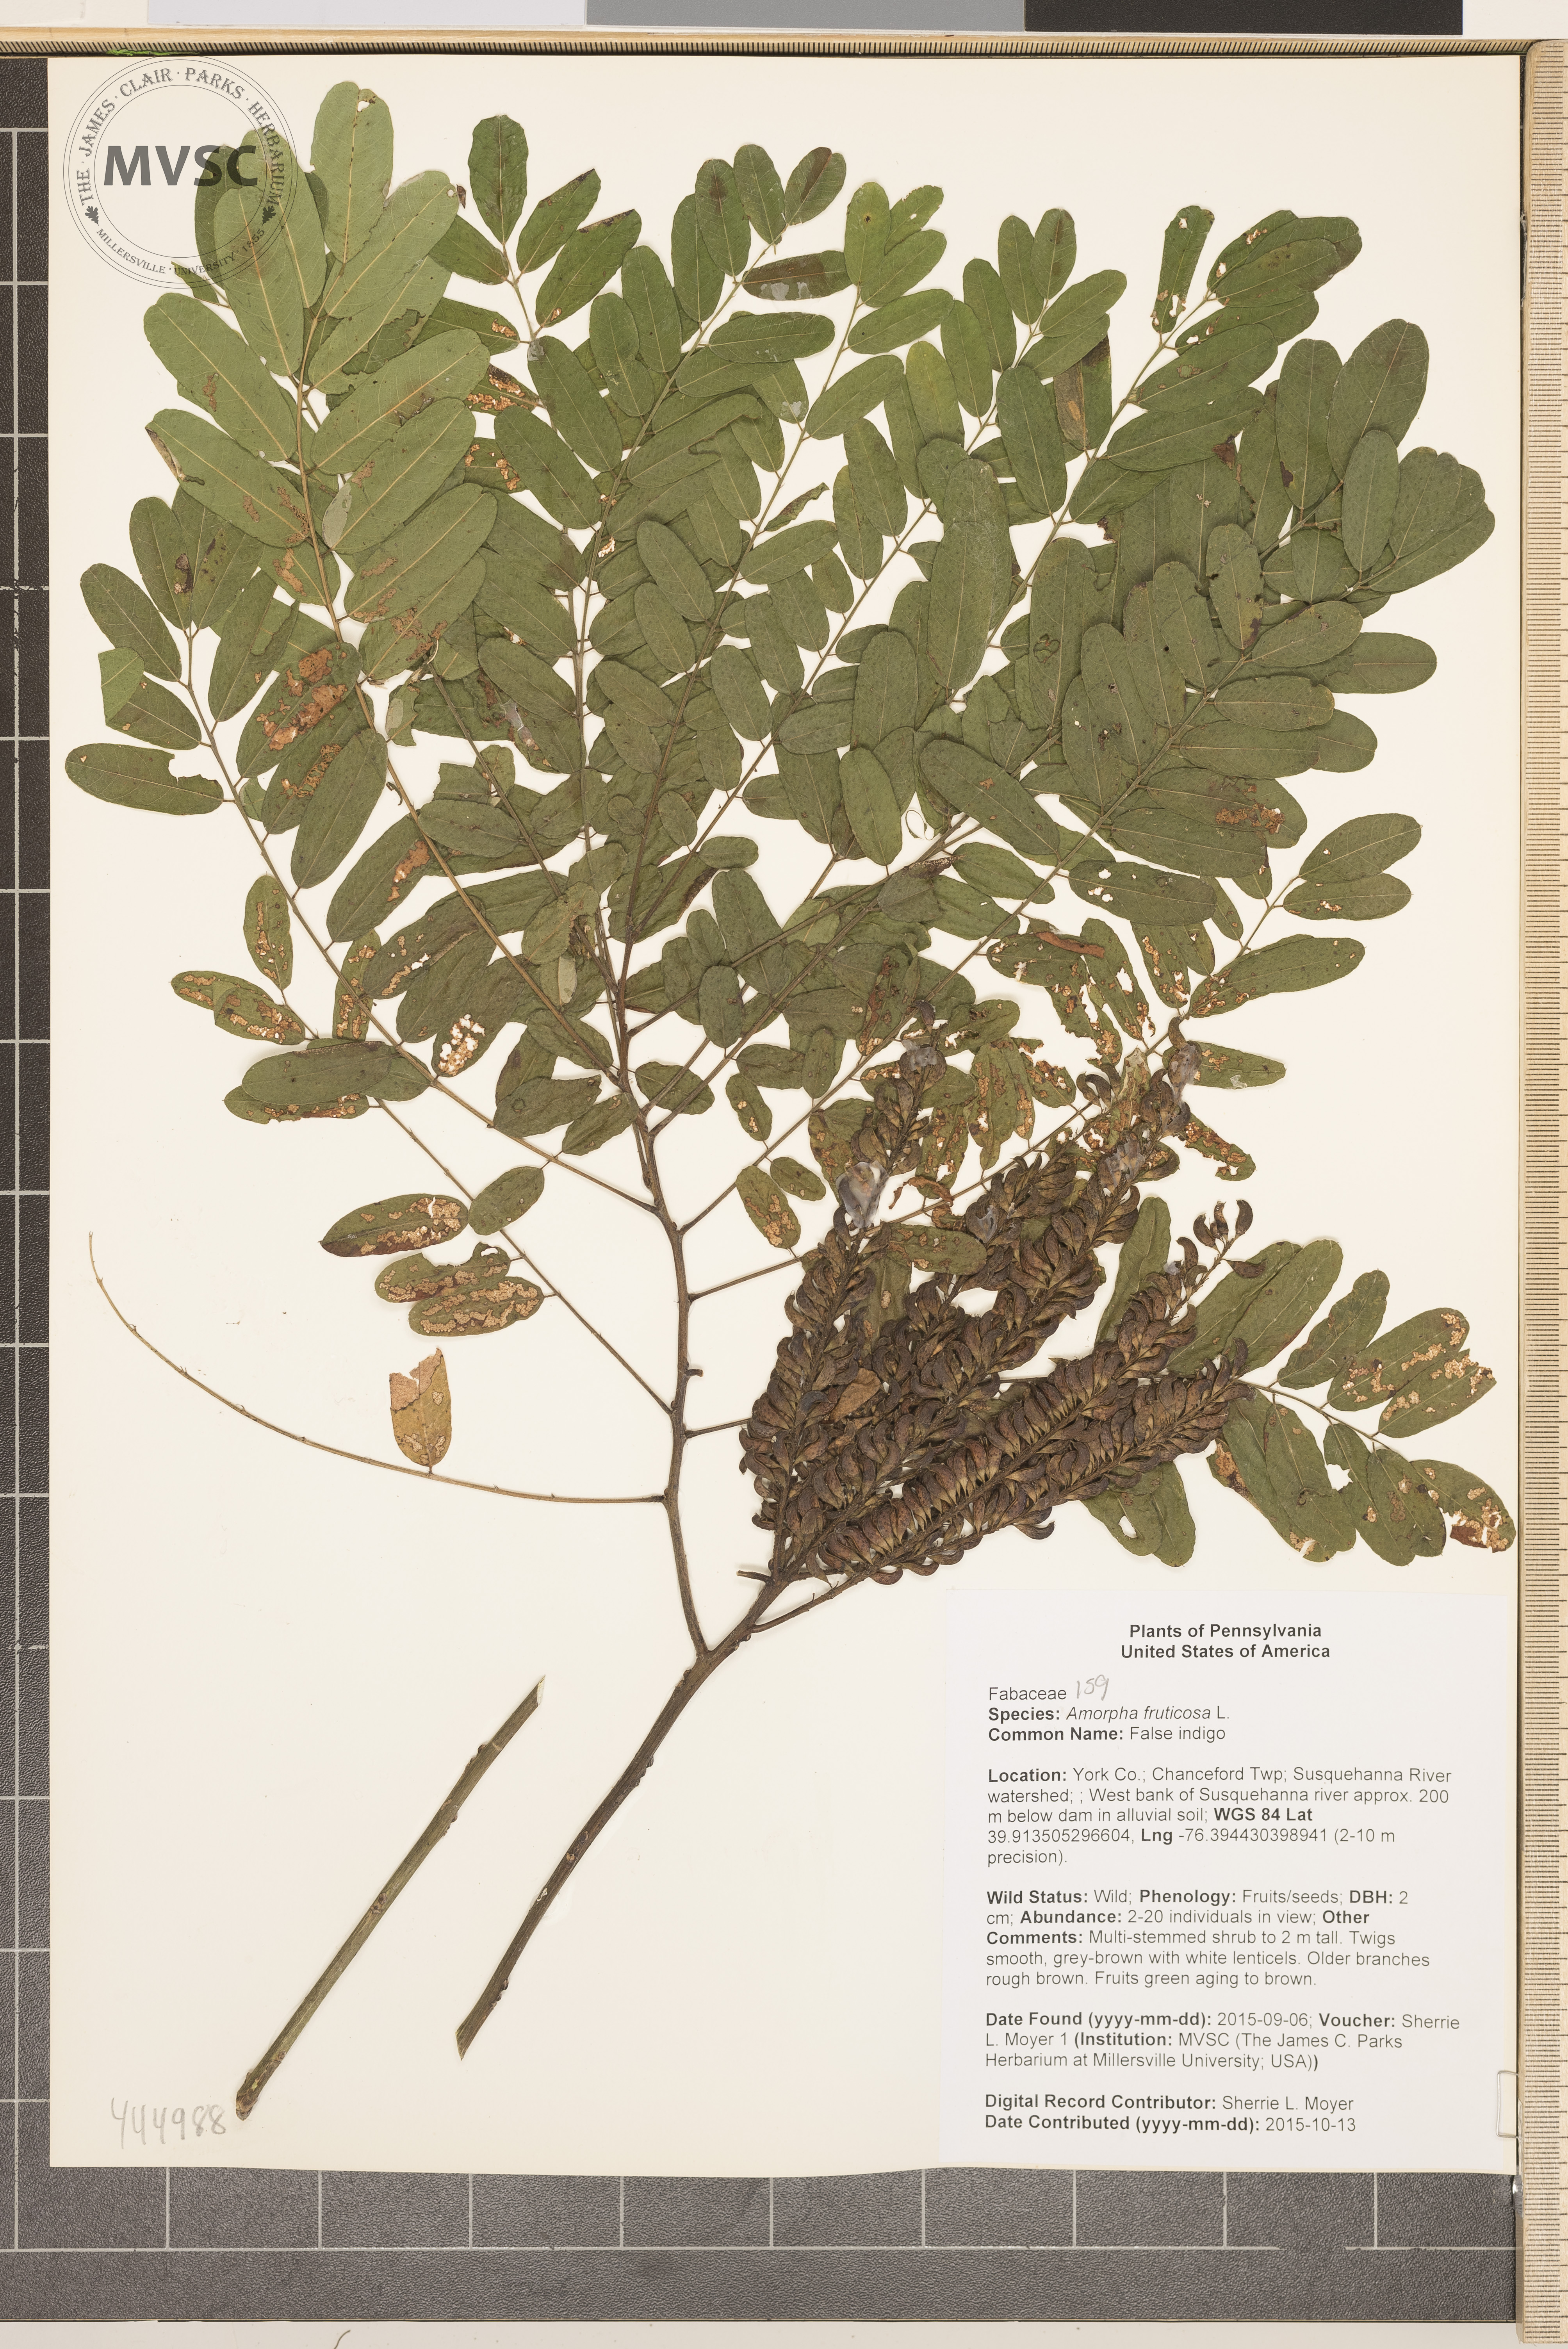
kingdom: Plantae
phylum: Tracheophyta
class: Magnoliopsida
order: Fabales
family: Fabaceae
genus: Amorpha
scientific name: Amorpha fruticosa
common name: False indigo
